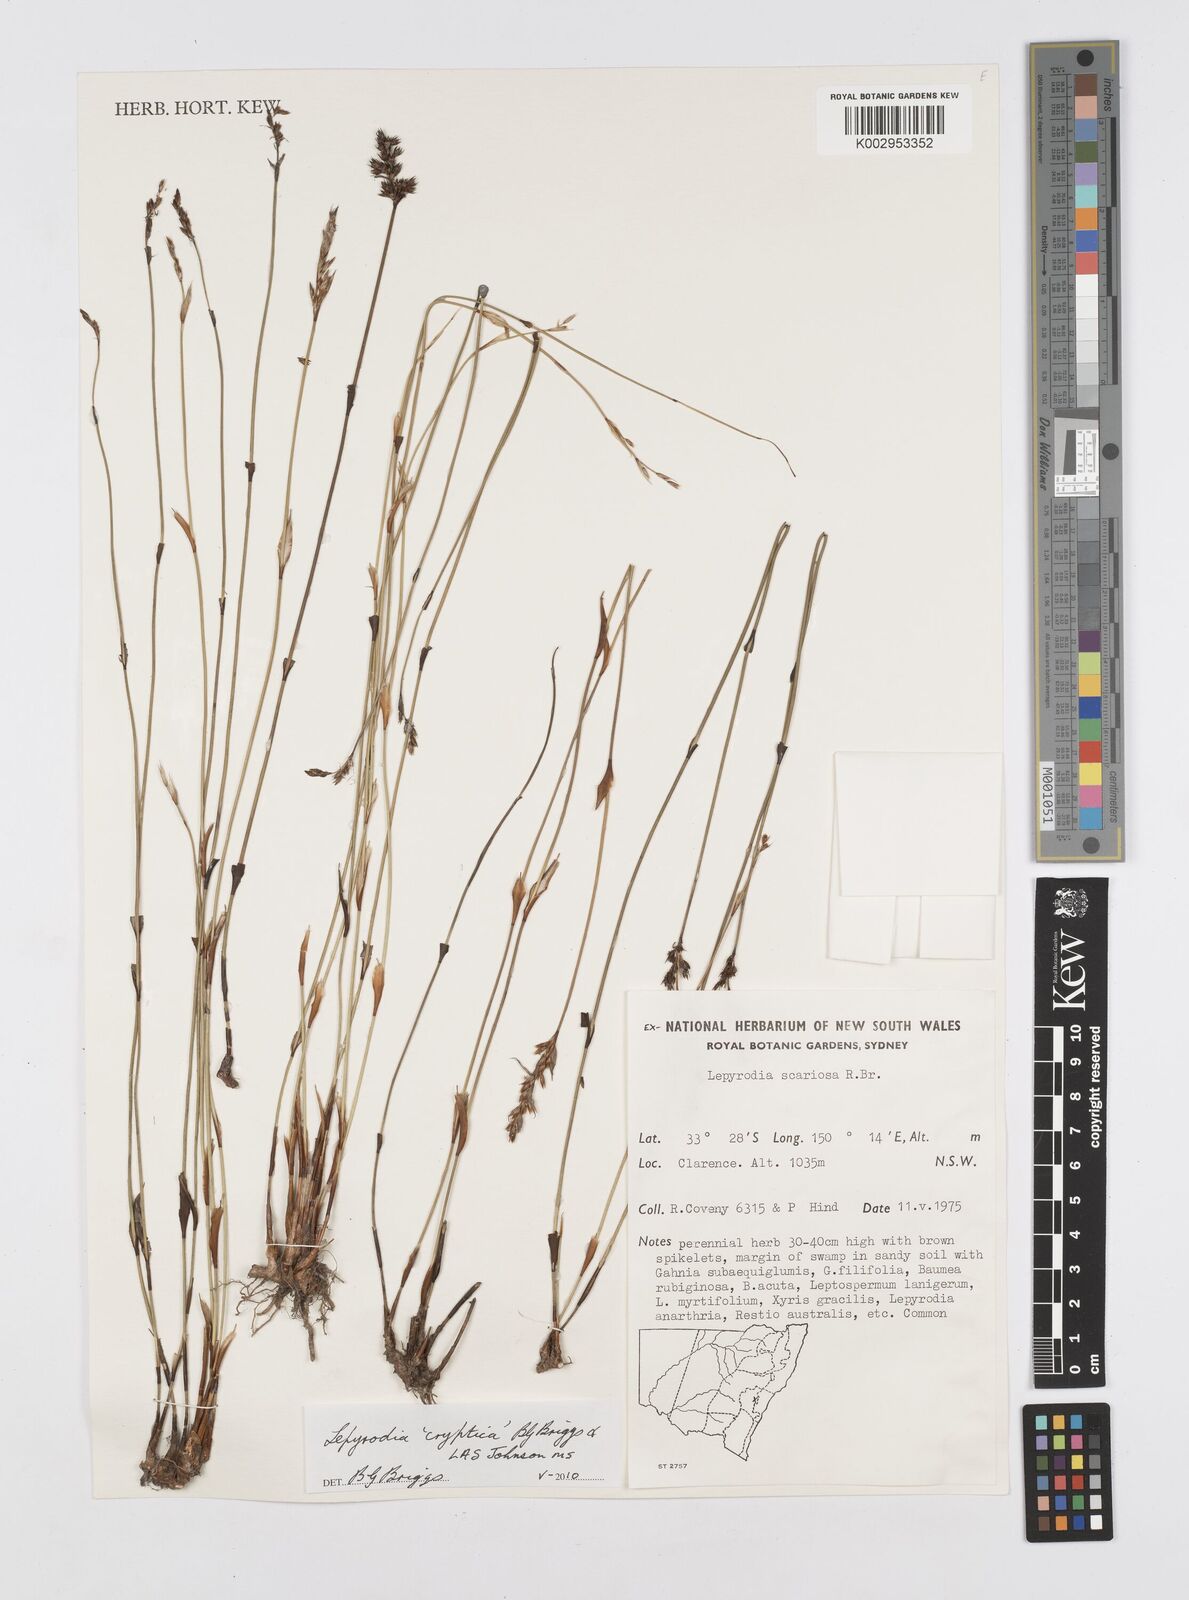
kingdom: Plantae
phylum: Tracheophyta
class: Liliopsida
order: Poales
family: Restionaceae
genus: Lepyrodia
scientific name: Lepyrodia cryptica
